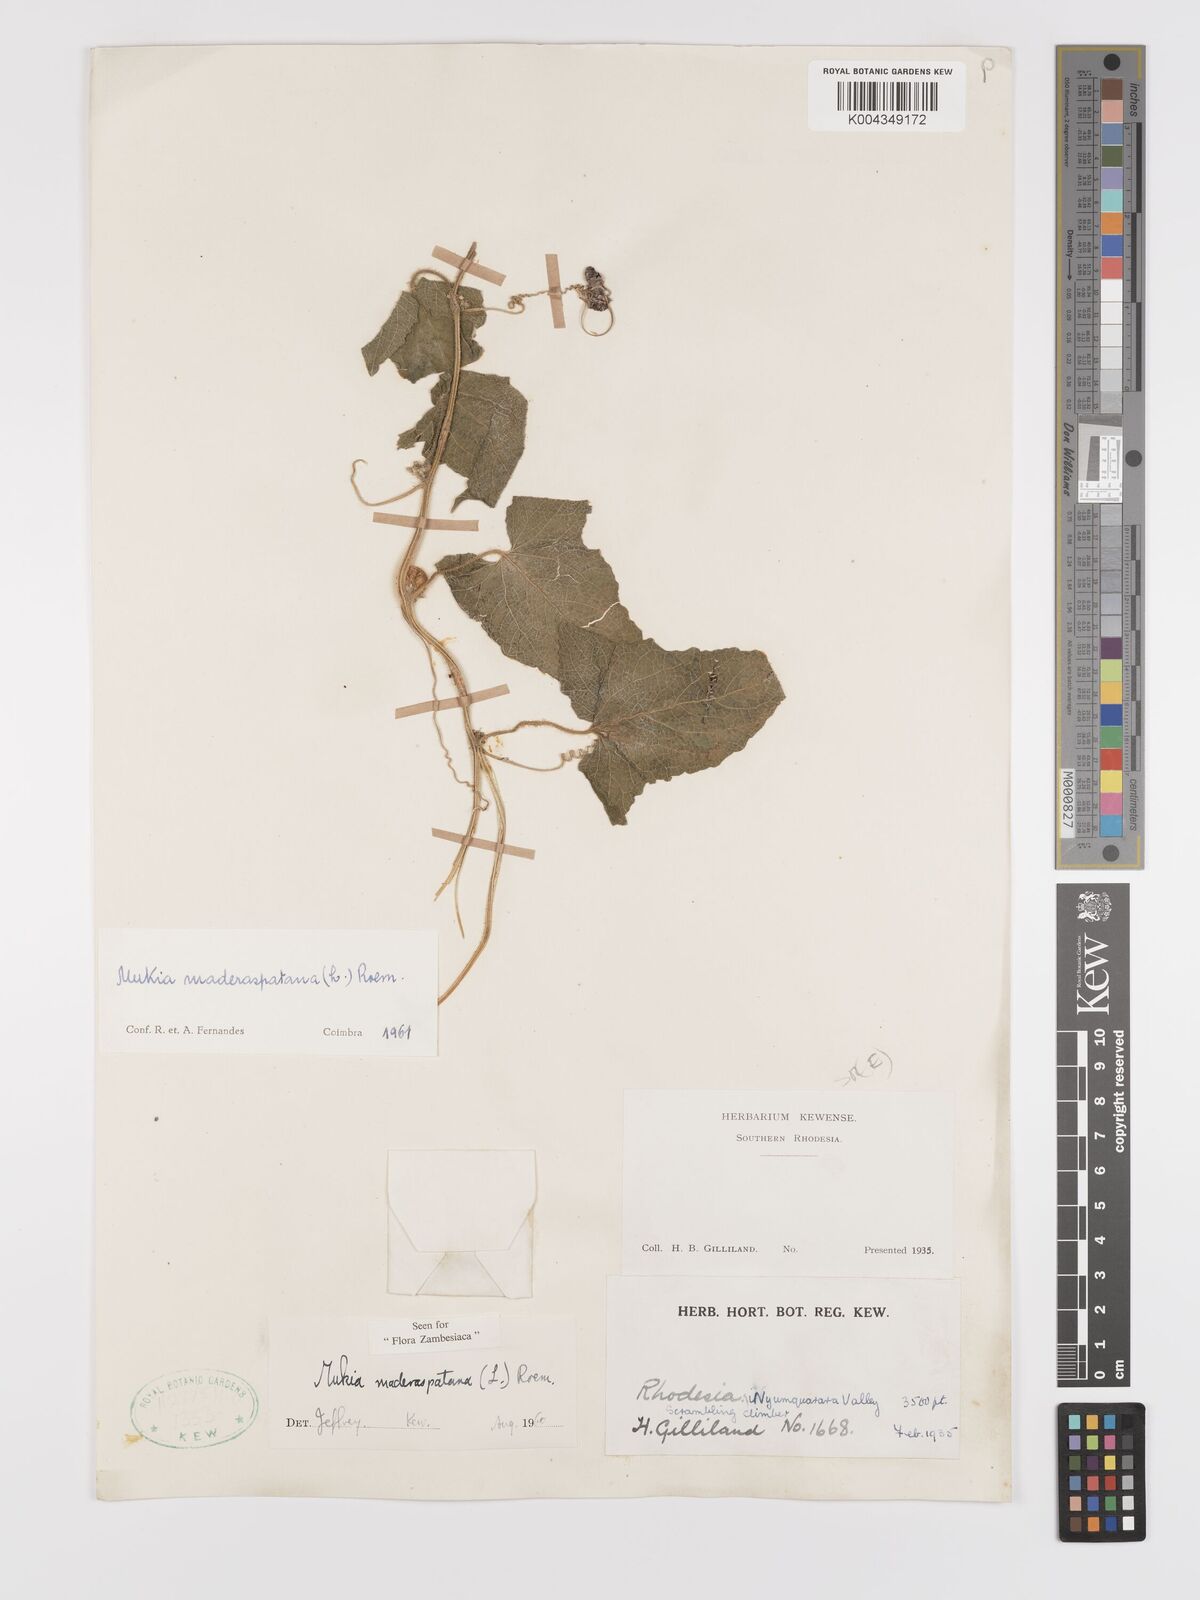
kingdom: Plantae
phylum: Tracheophyta
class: Magnoliopsida
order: Cucurbitales
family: Cucurbitaceae
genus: Cucumis
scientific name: Cucumis maderaspatanus
